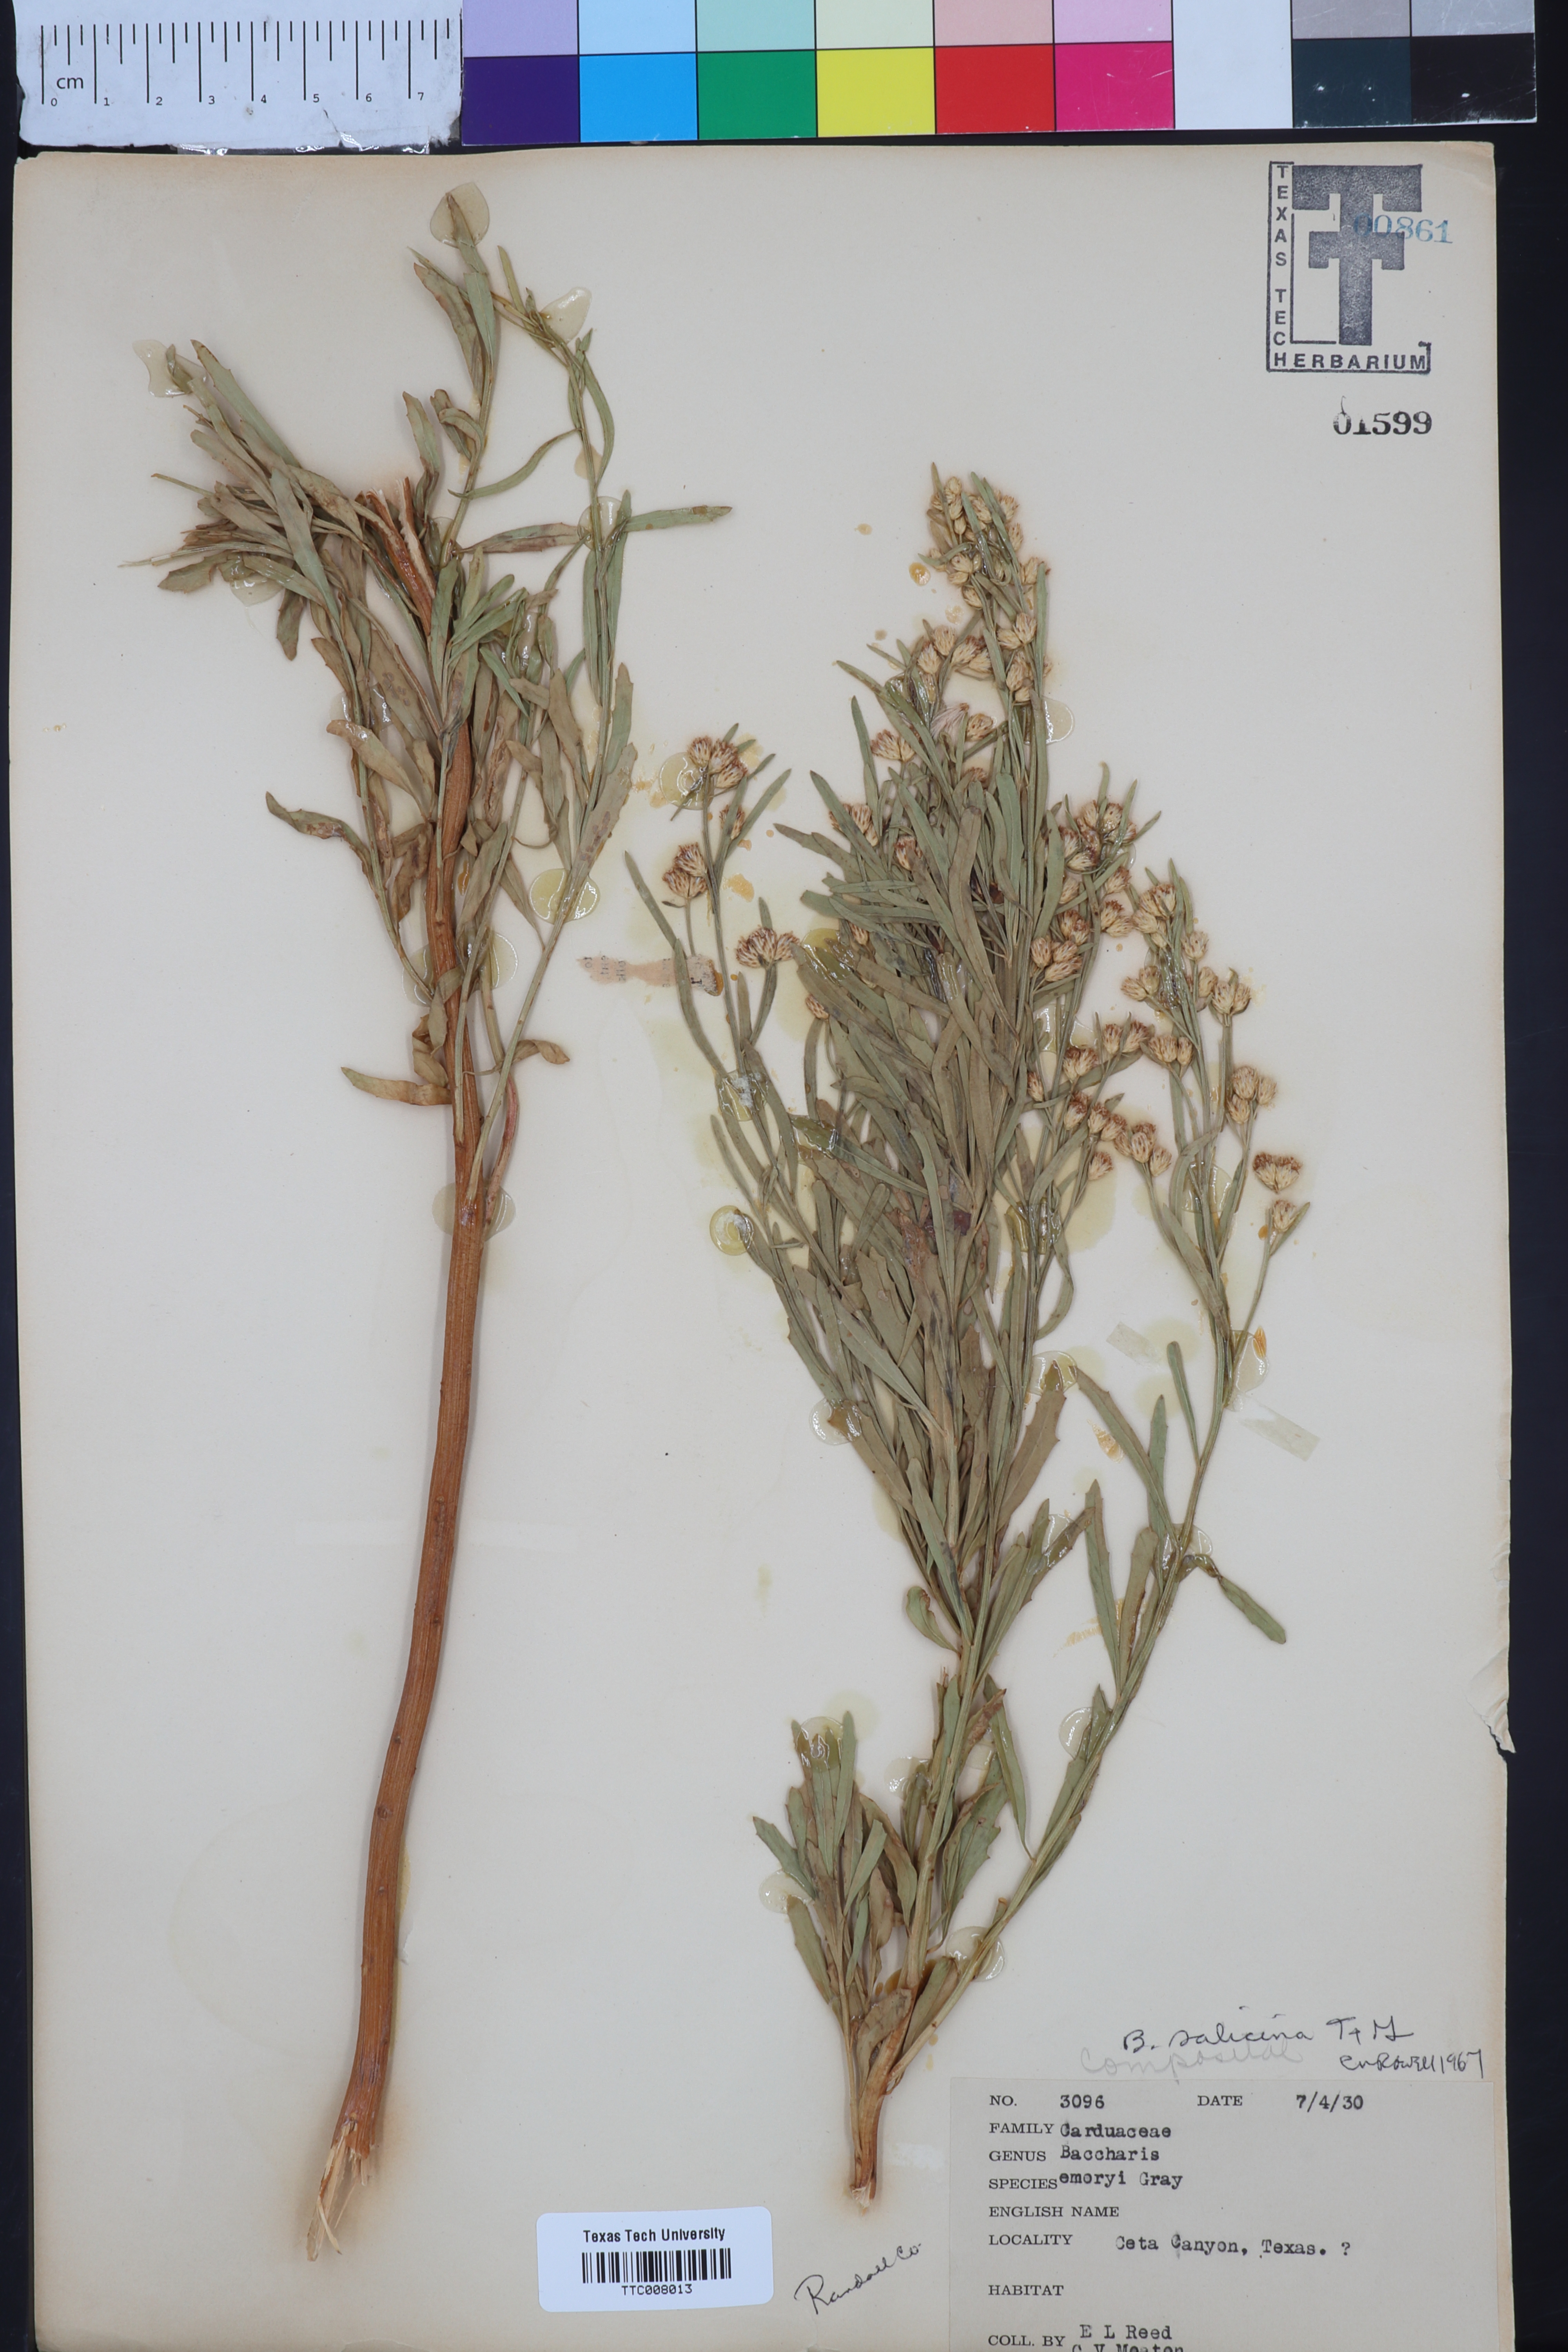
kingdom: Plantae
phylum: Tracheophyta
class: Magnoliopsida
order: Asterales
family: Asteraceae
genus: Baccharis
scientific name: Baccharis salicina
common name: Willow baccharis
